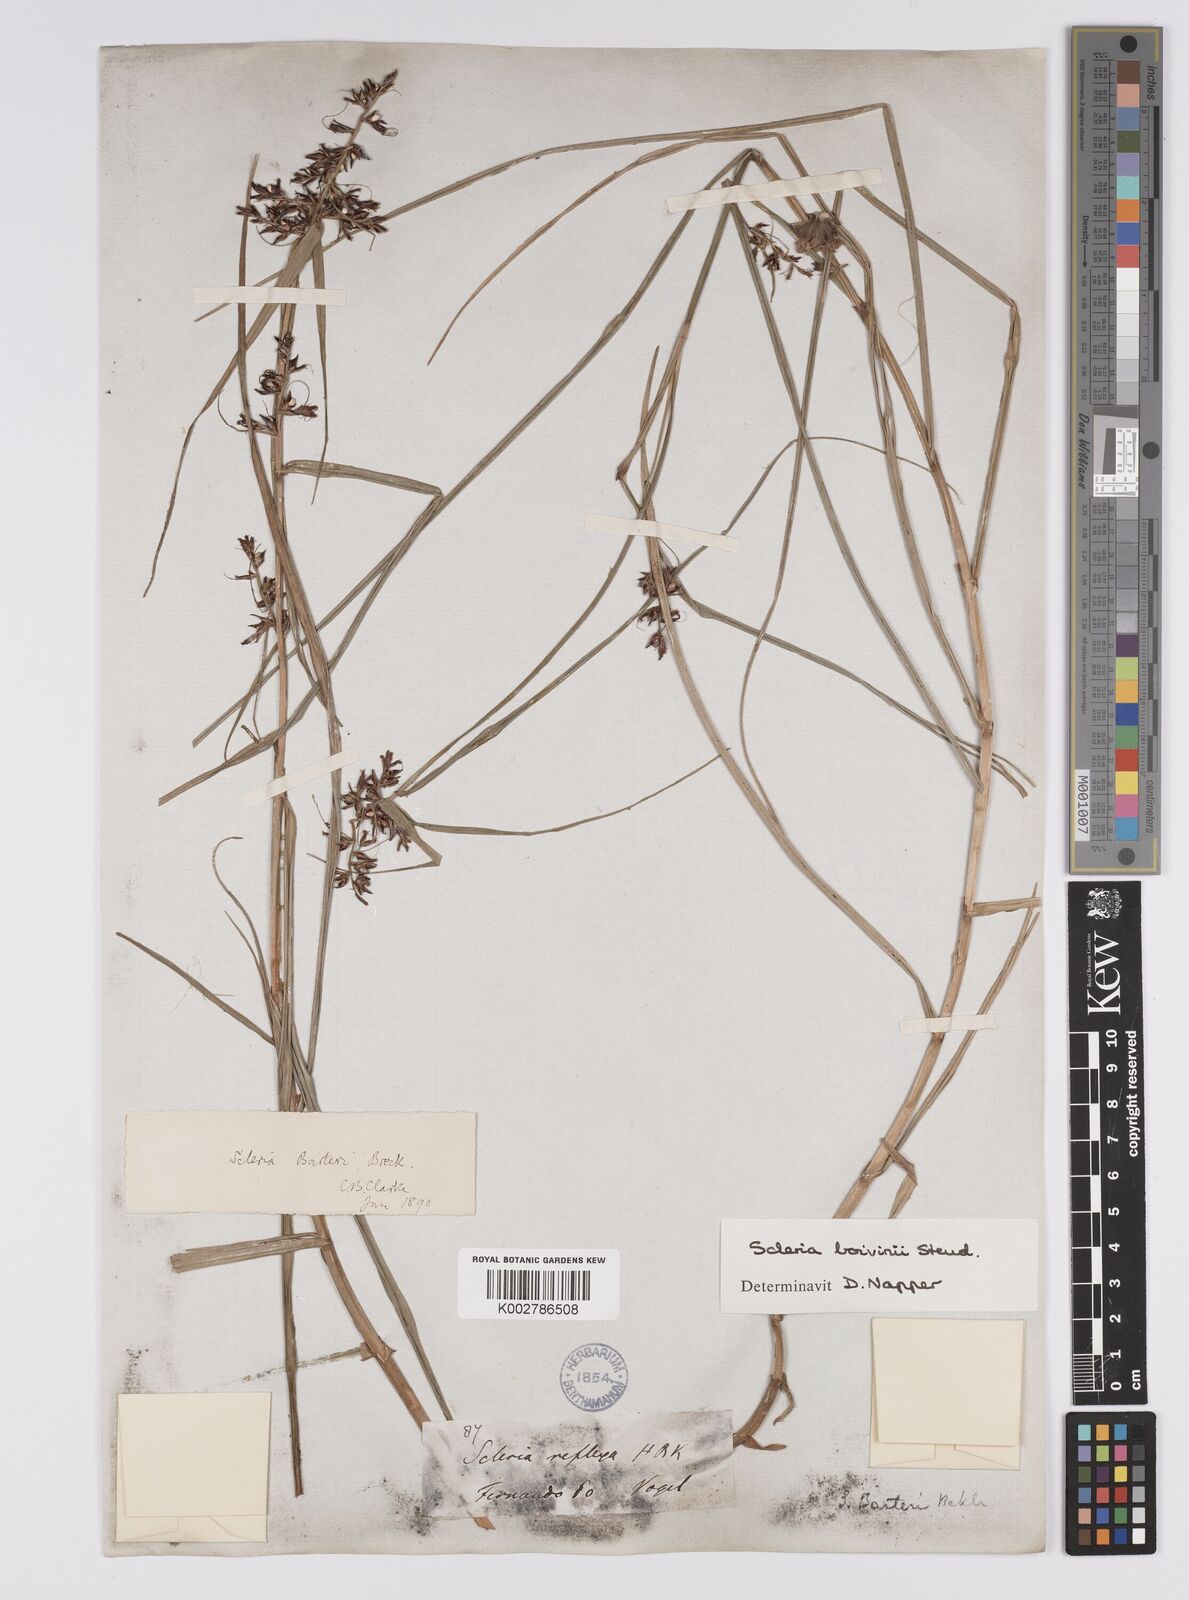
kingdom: Plantae
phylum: Tracheophyta
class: Liliopsida
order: Poales
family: Cyperaceae
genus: Scleria
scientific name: Scleria boivinii
